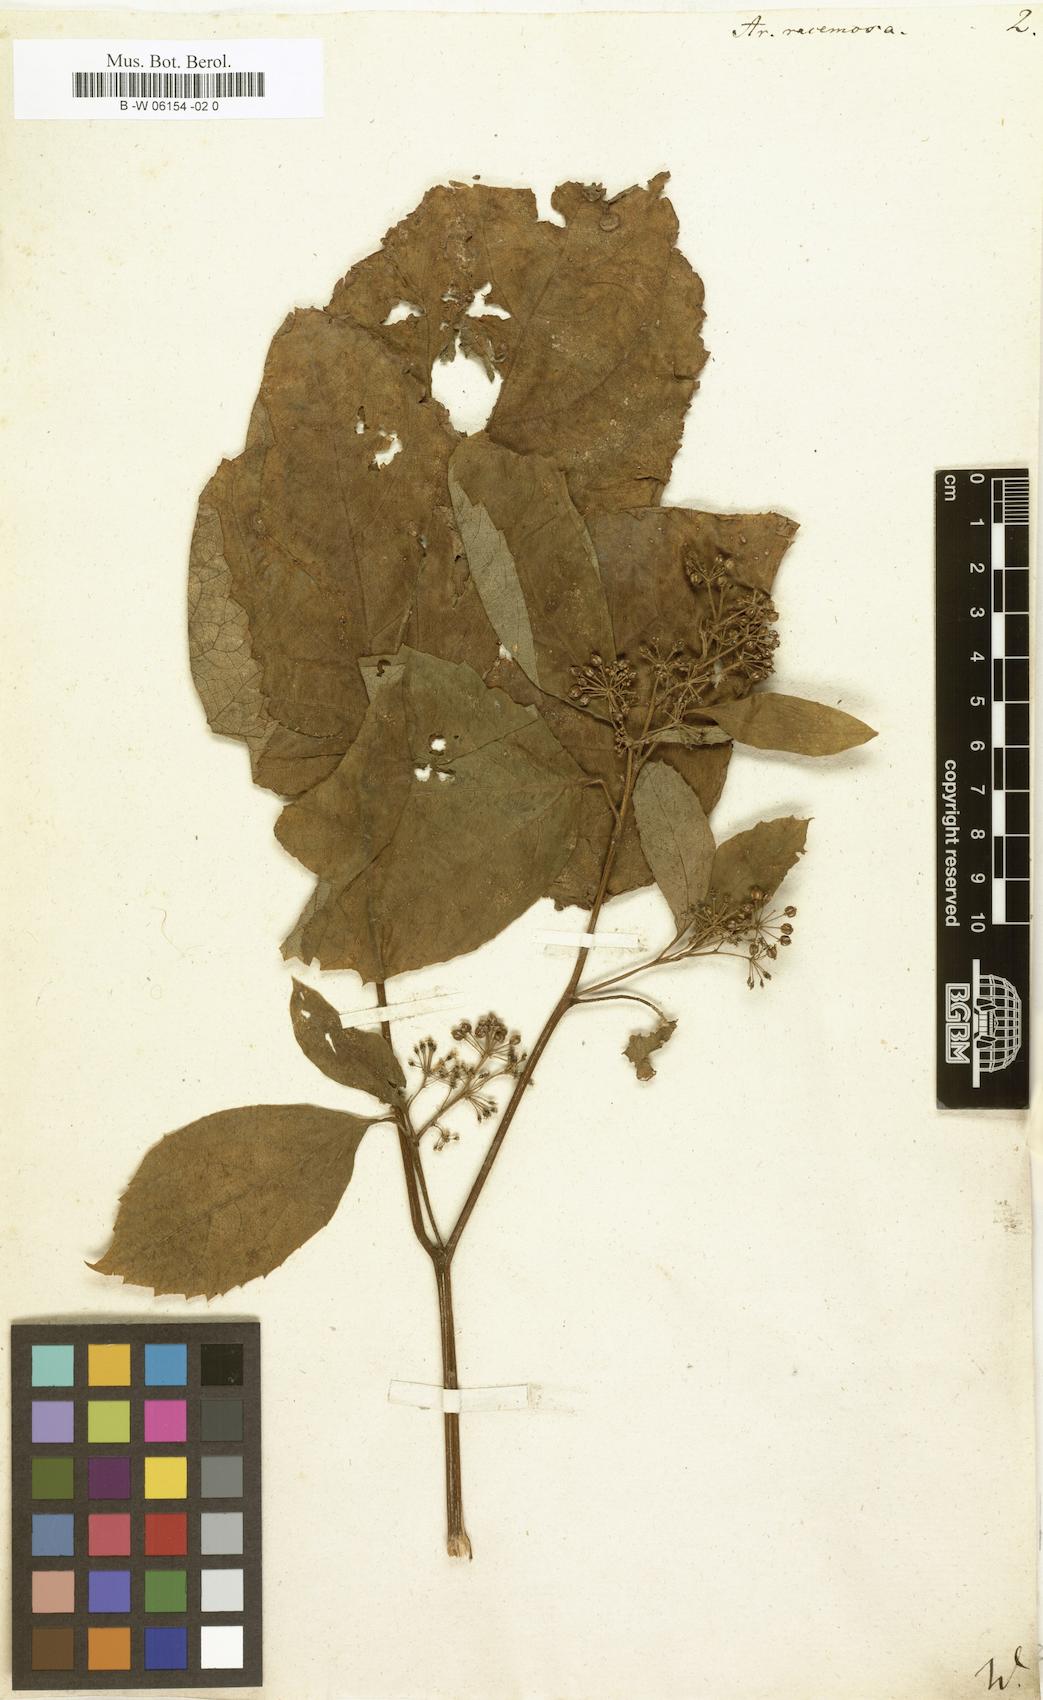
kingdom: Plantae
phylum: Tracheophyta
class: Magnoliopsida
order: Apiales
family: Araliaceae
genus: Aralia
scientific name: Aralia racemosa
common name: American-spikenard
